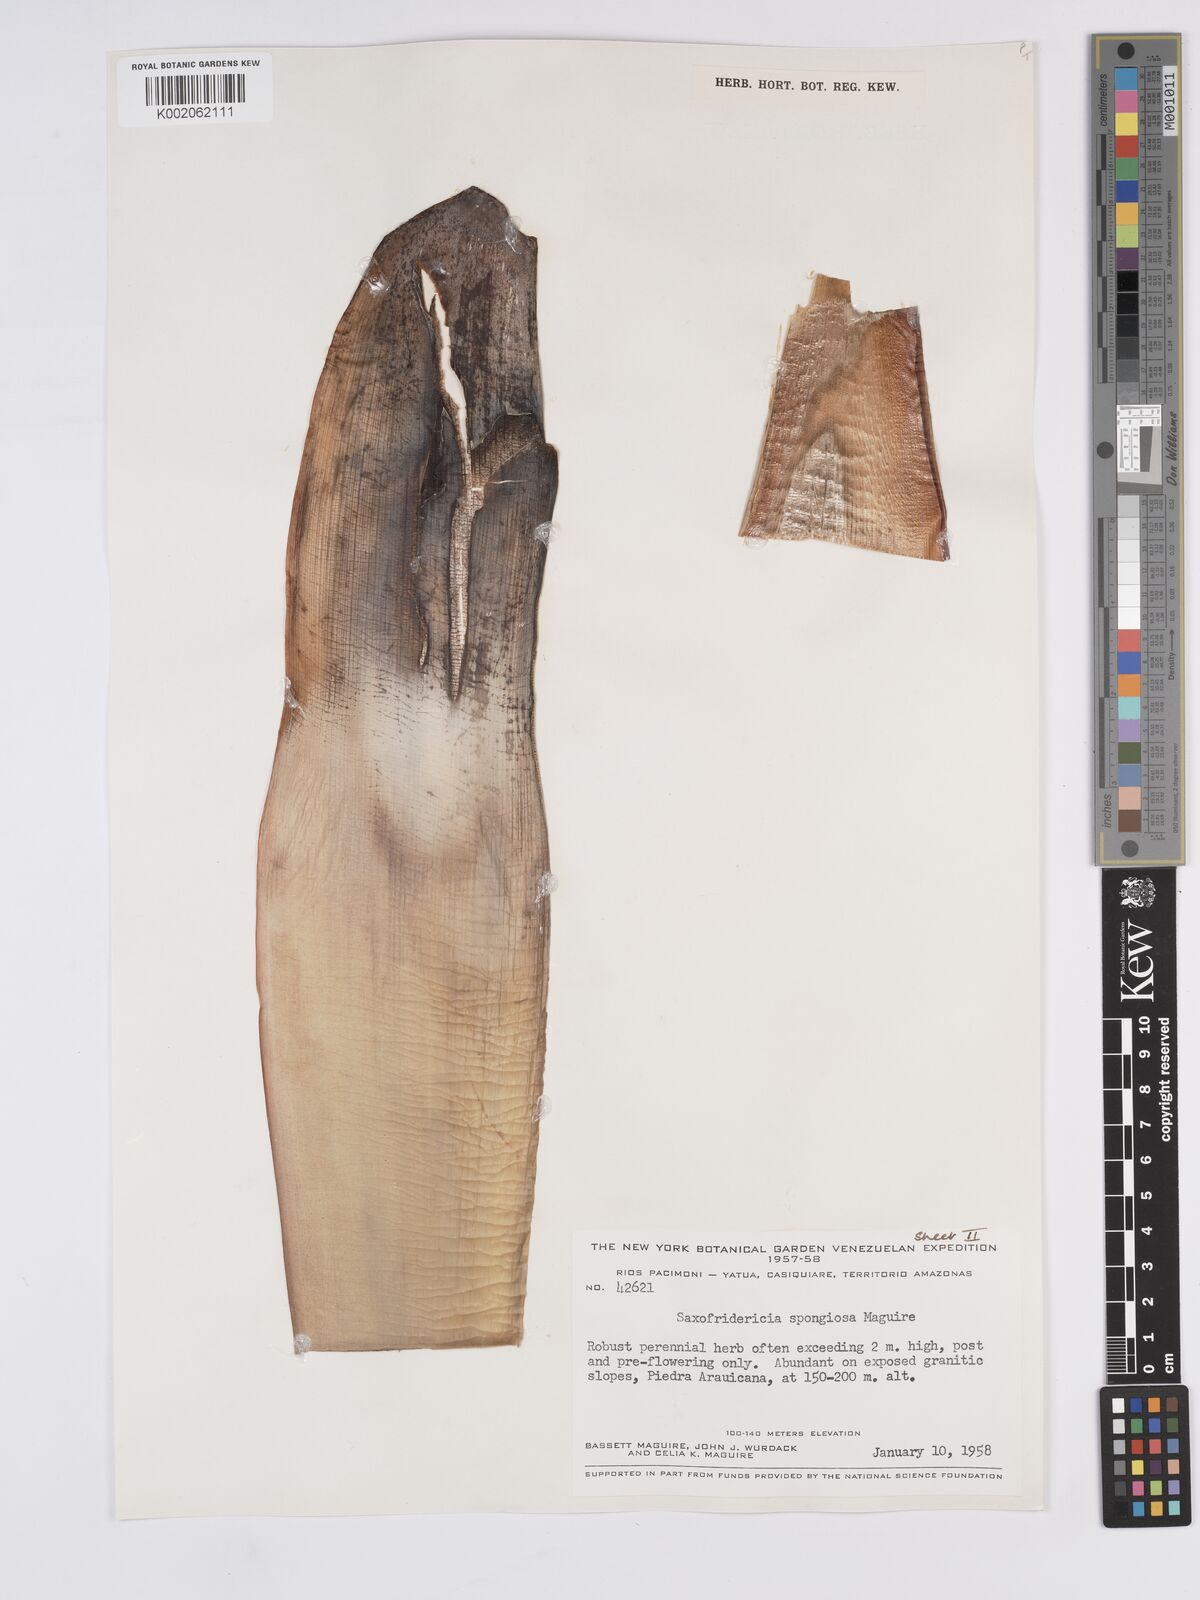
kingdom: Plantae
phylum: Tracheophyta
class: Liliopsida
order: Poales
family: Rapateaceae
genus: Saxofridericia
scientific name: Saxofridericia spongiosa
